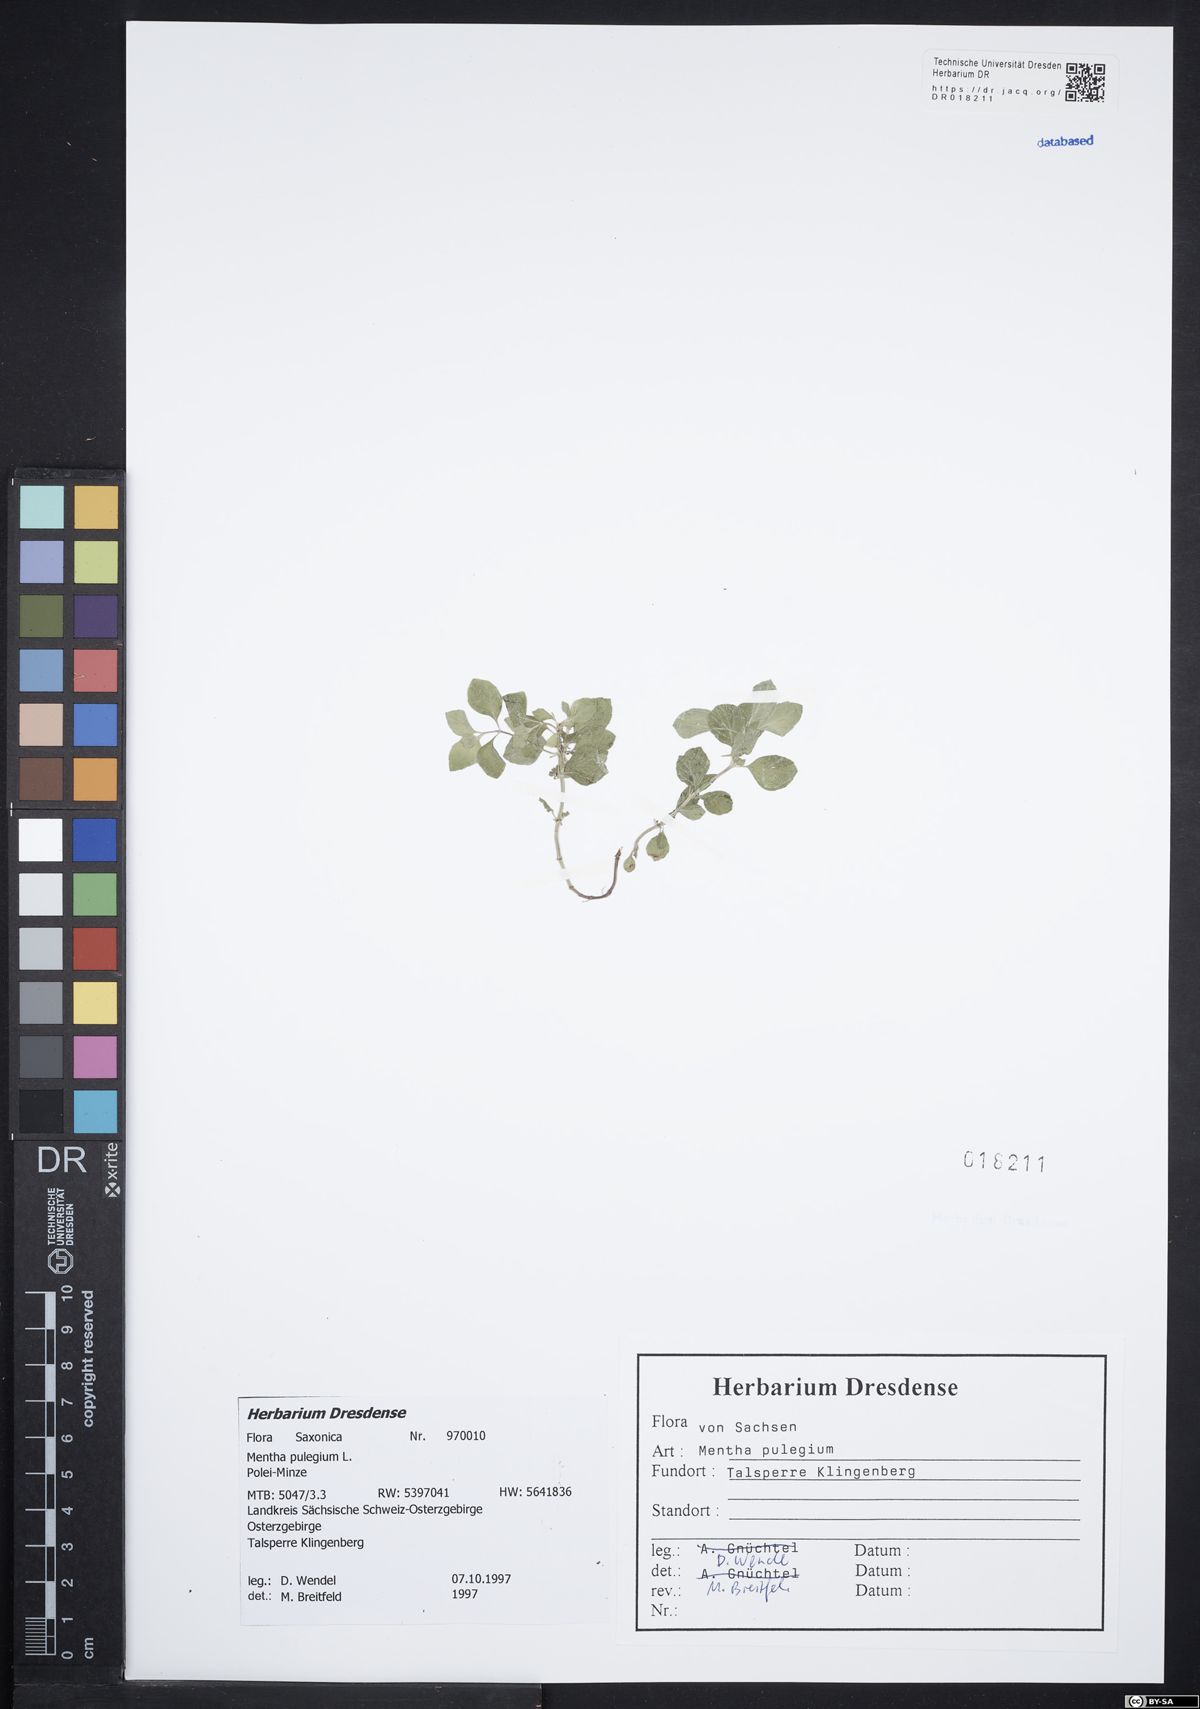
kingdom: Plantae
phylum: Tracheophyta
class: Magnoliopsida
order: Lamiales
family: Lamiaceae
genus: Mentha
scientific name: Mentha pulegium
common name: Pennyroyal
